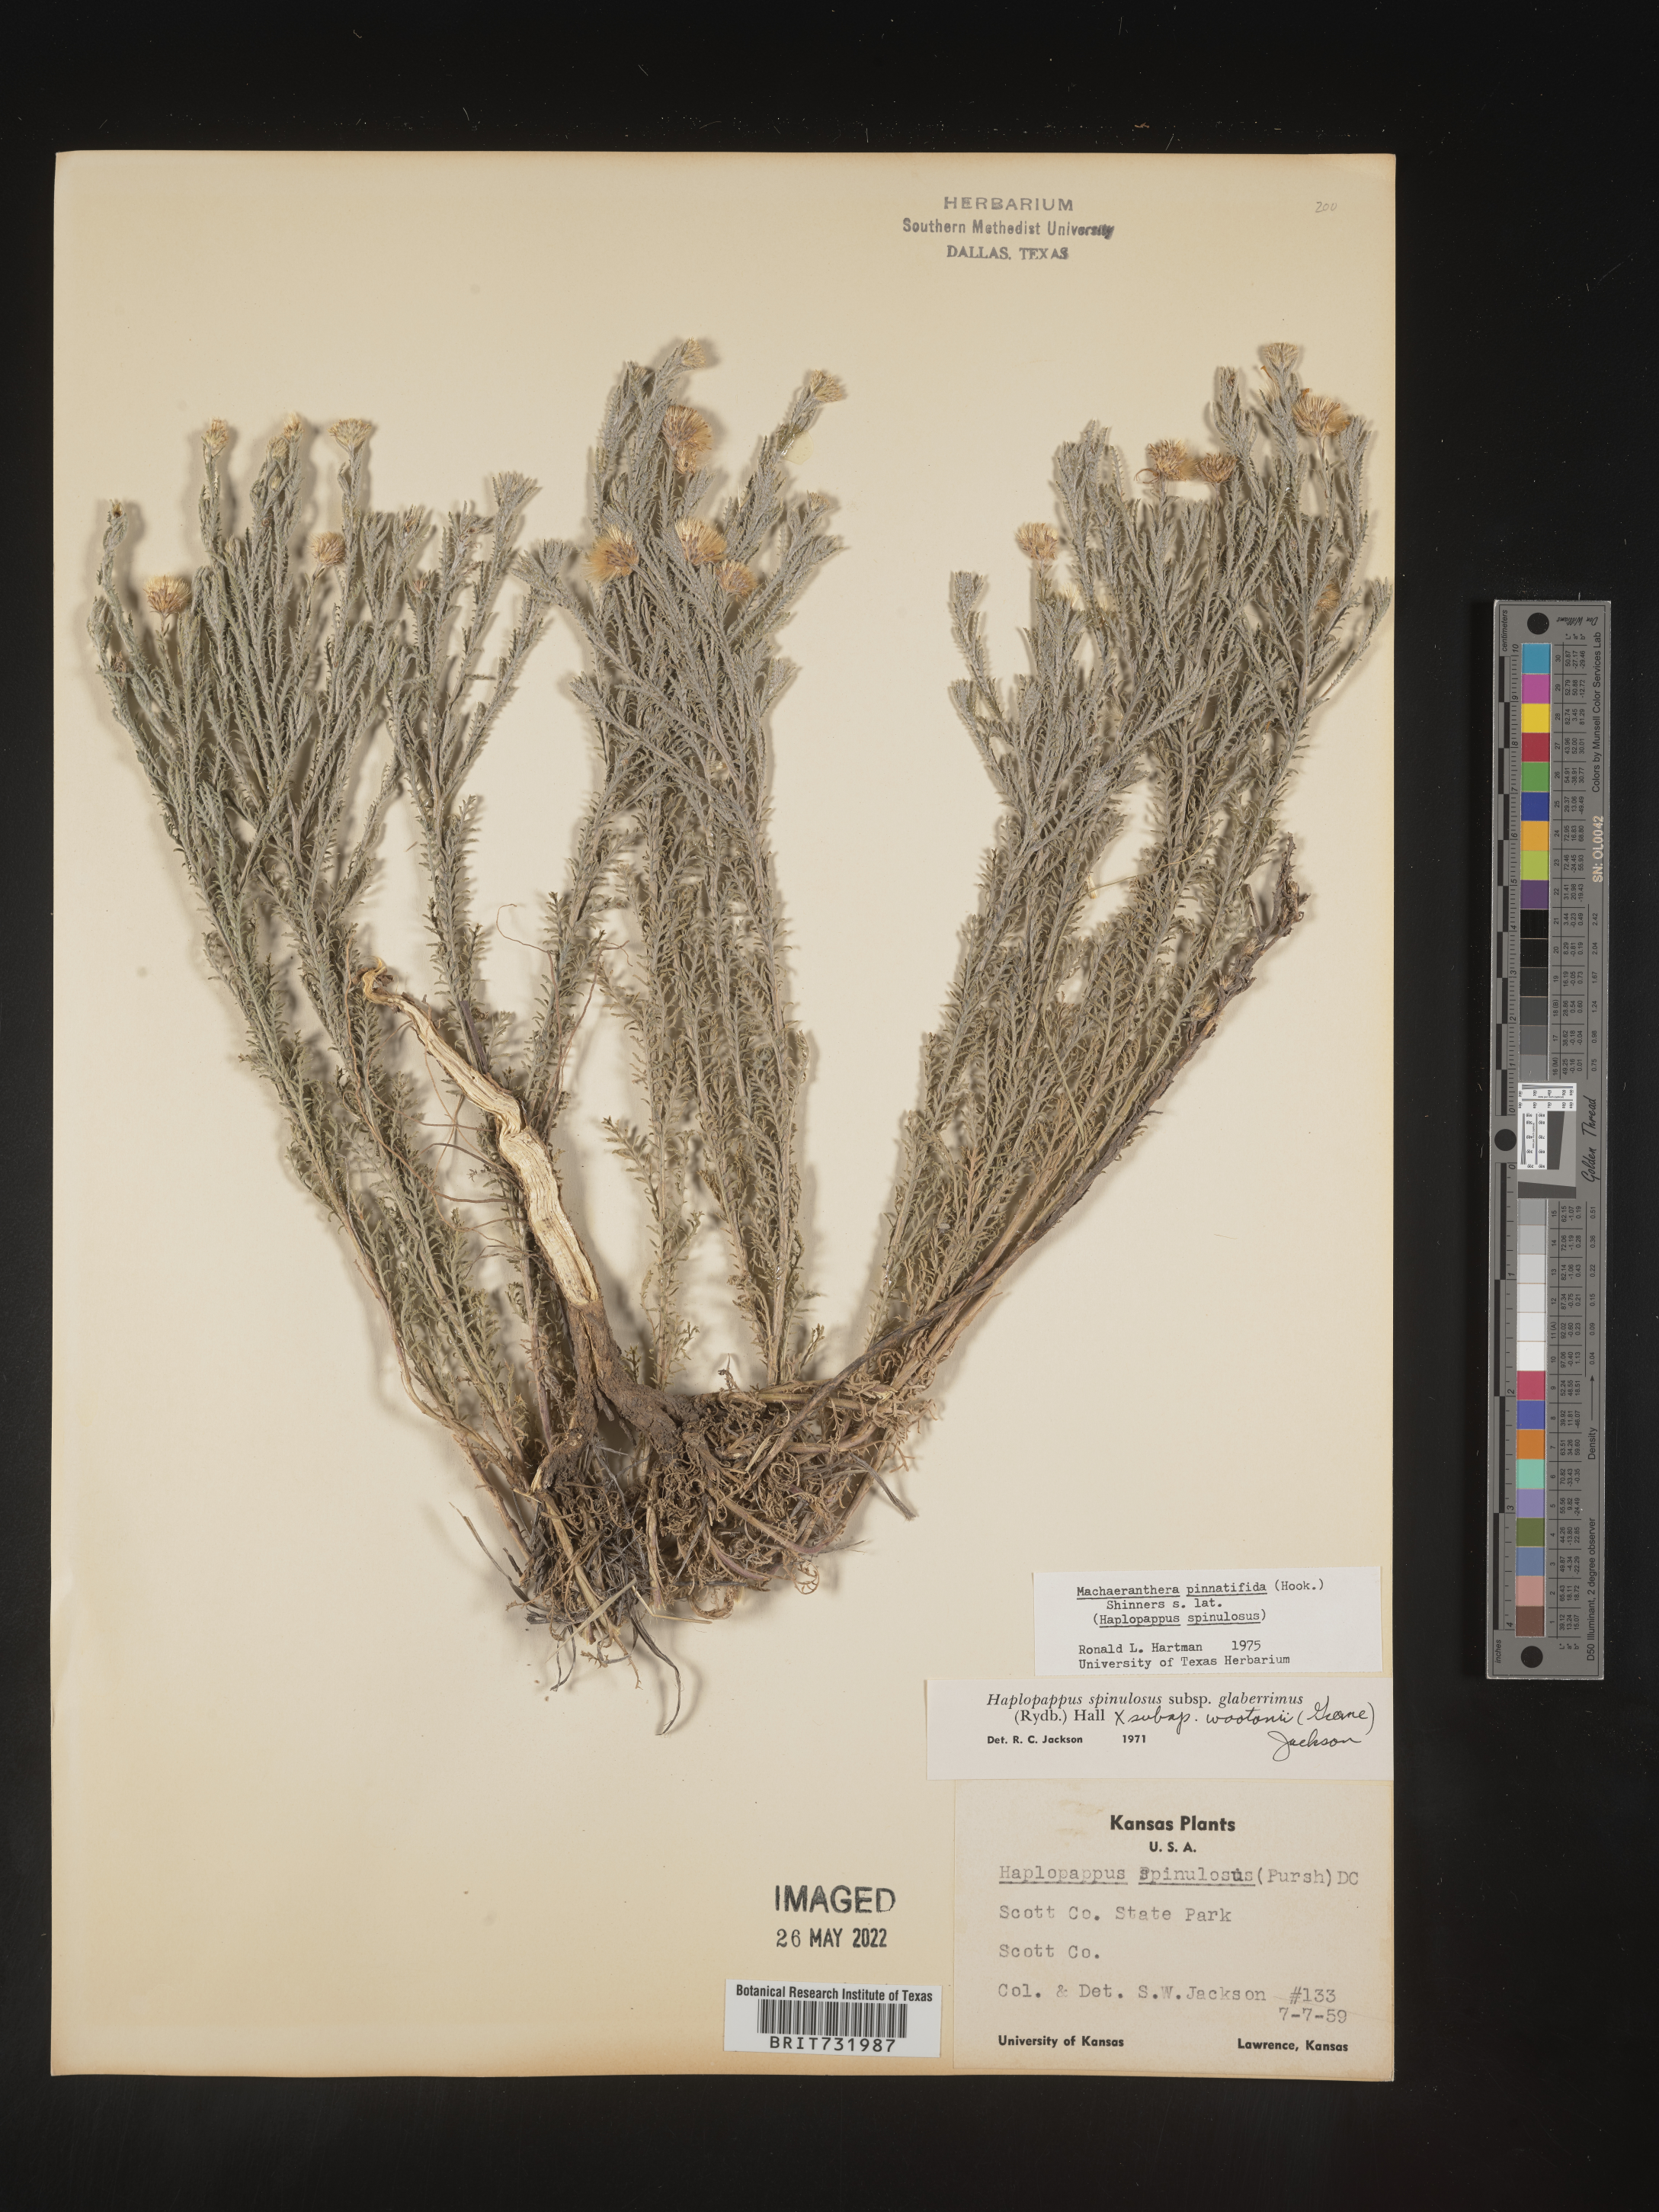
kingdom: Plantae
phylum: Tracheophyta
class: Magnoliopsida
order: Asterales
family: Asteraceae
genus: Xanthisma
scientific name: Xanthisma spinulosum
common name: Spiny goldenweed
